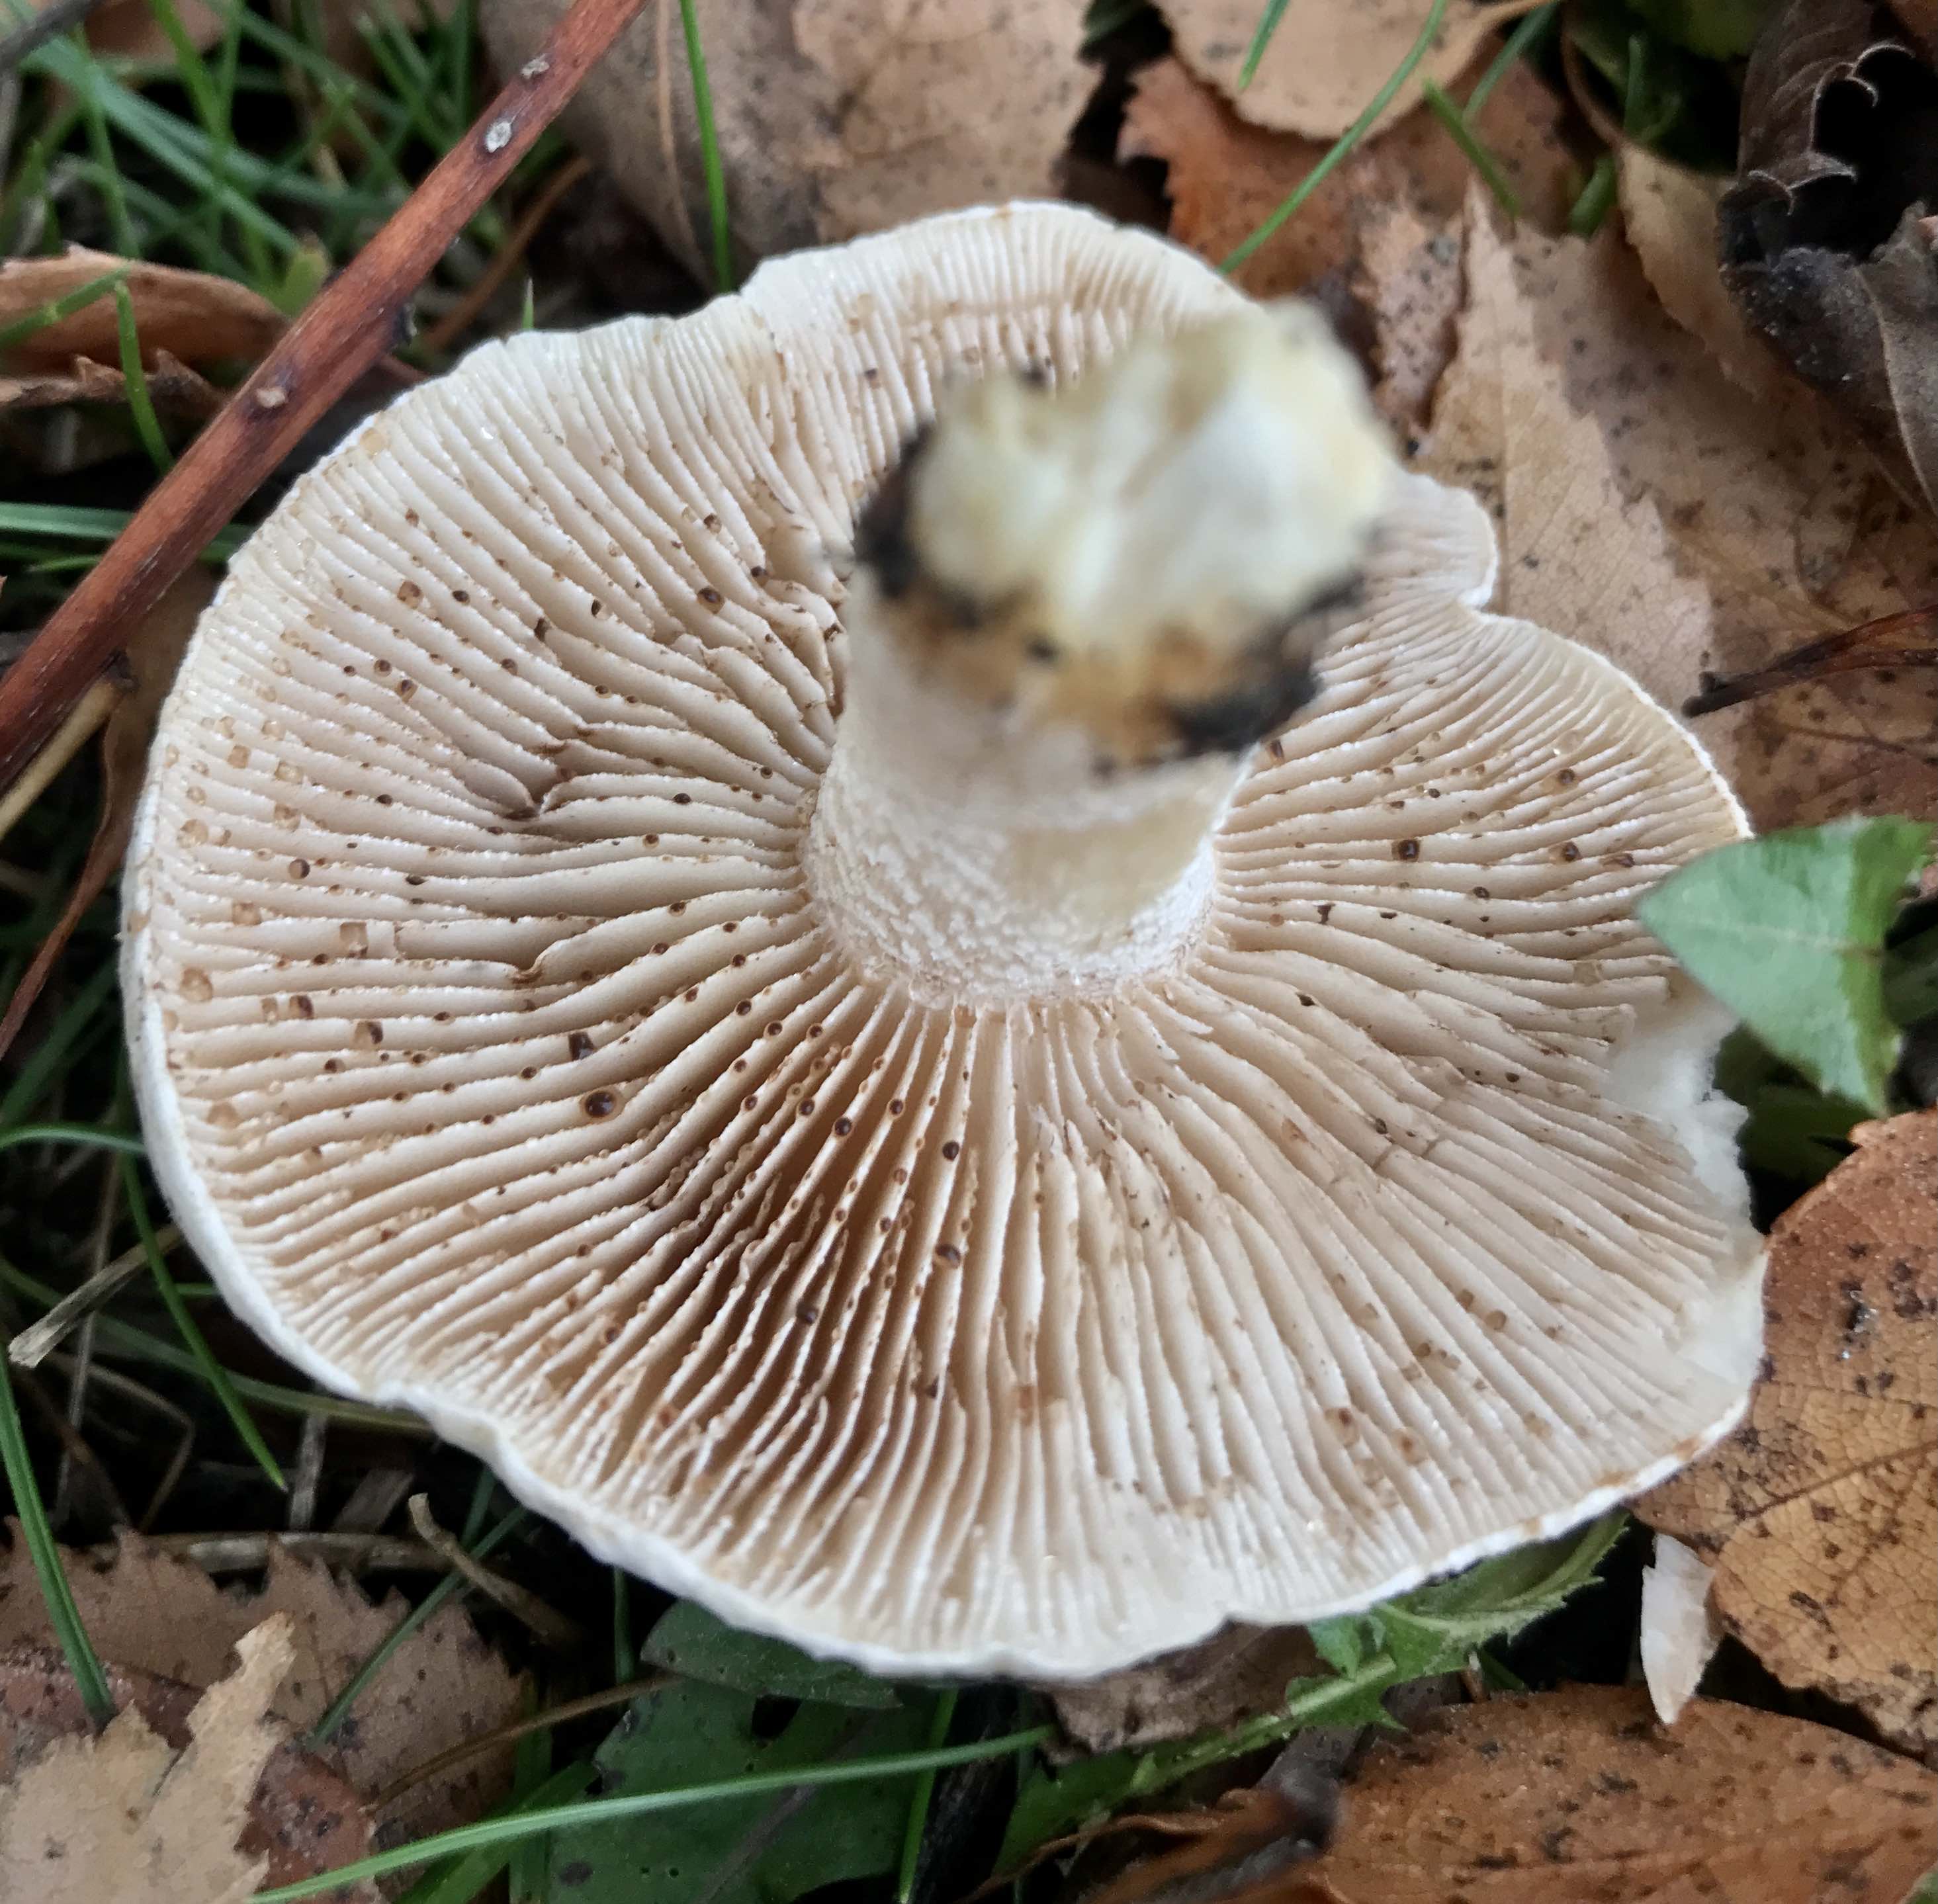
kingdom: Fungi
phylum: Basidiomycota
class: Agaricomycetes
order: Agaricales
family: Hymenogastraceae
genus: Hebeloma
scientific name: Hebeloma crustuliniforme
